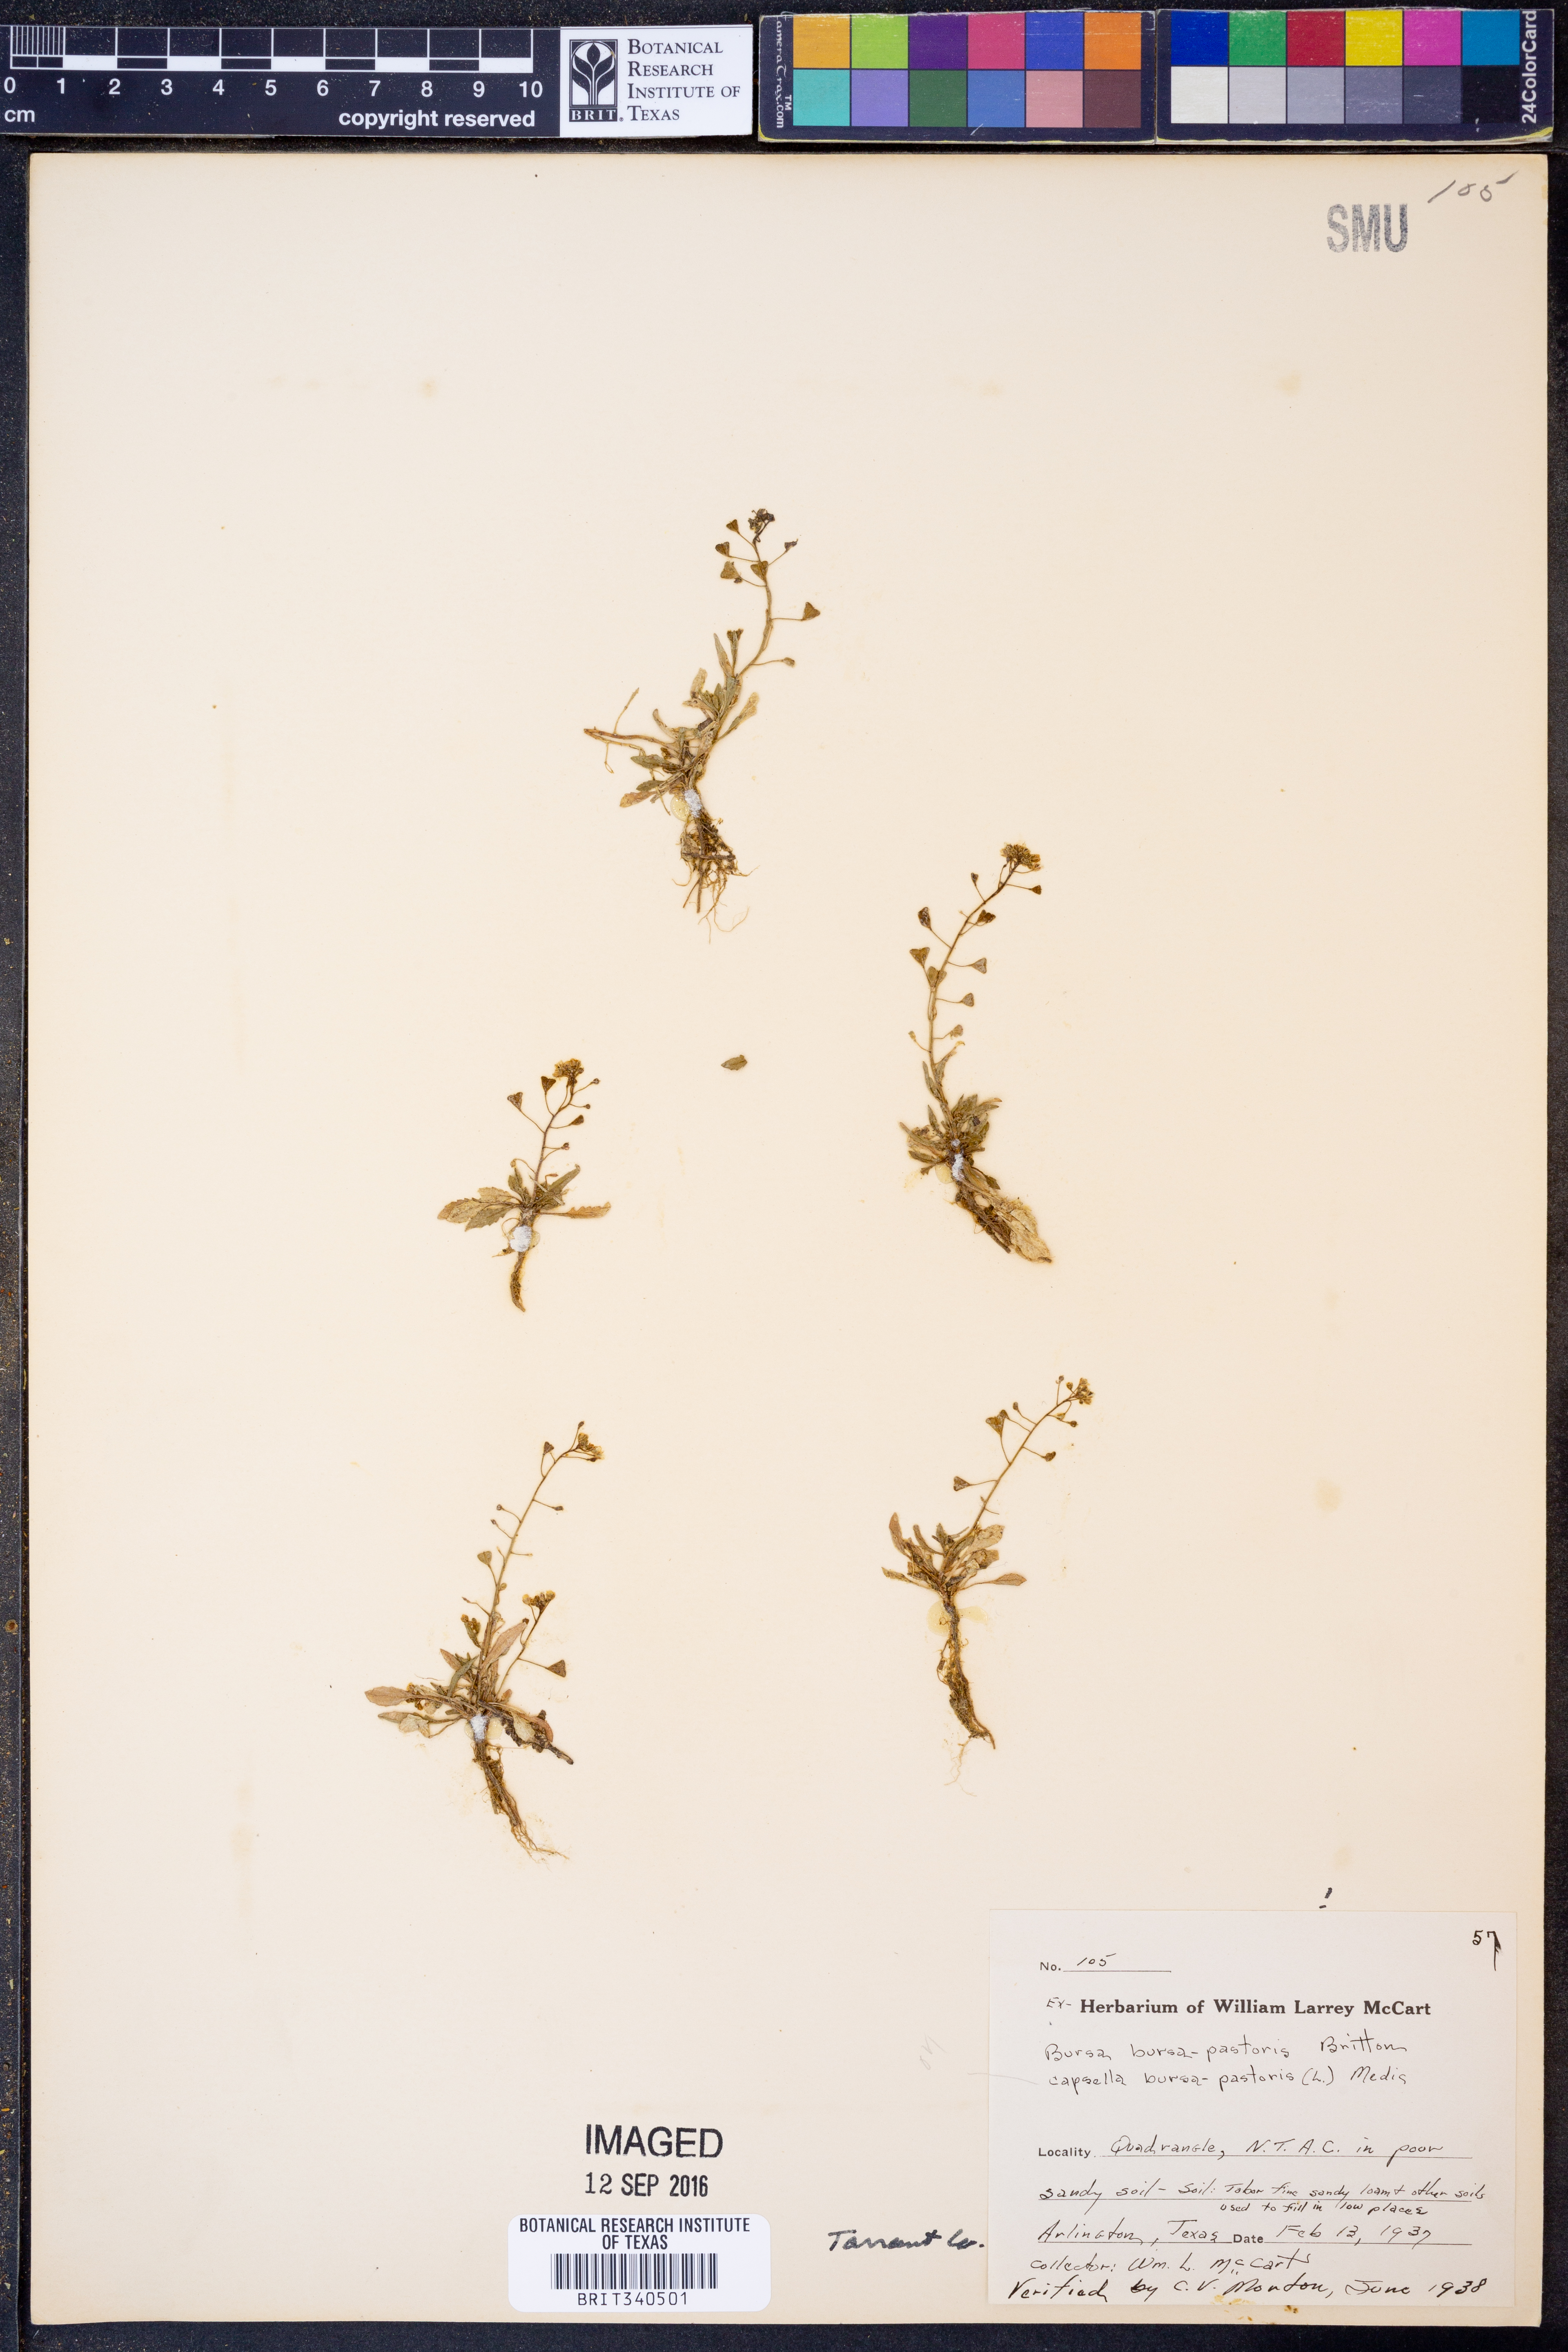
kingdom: Plantae
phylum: Tracheophyta
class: Magnoliopsida
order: Brassicales
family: Brassicaceae
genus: Capsella
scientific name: Capsella bursa-pastoris
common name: Shepherd's purse
